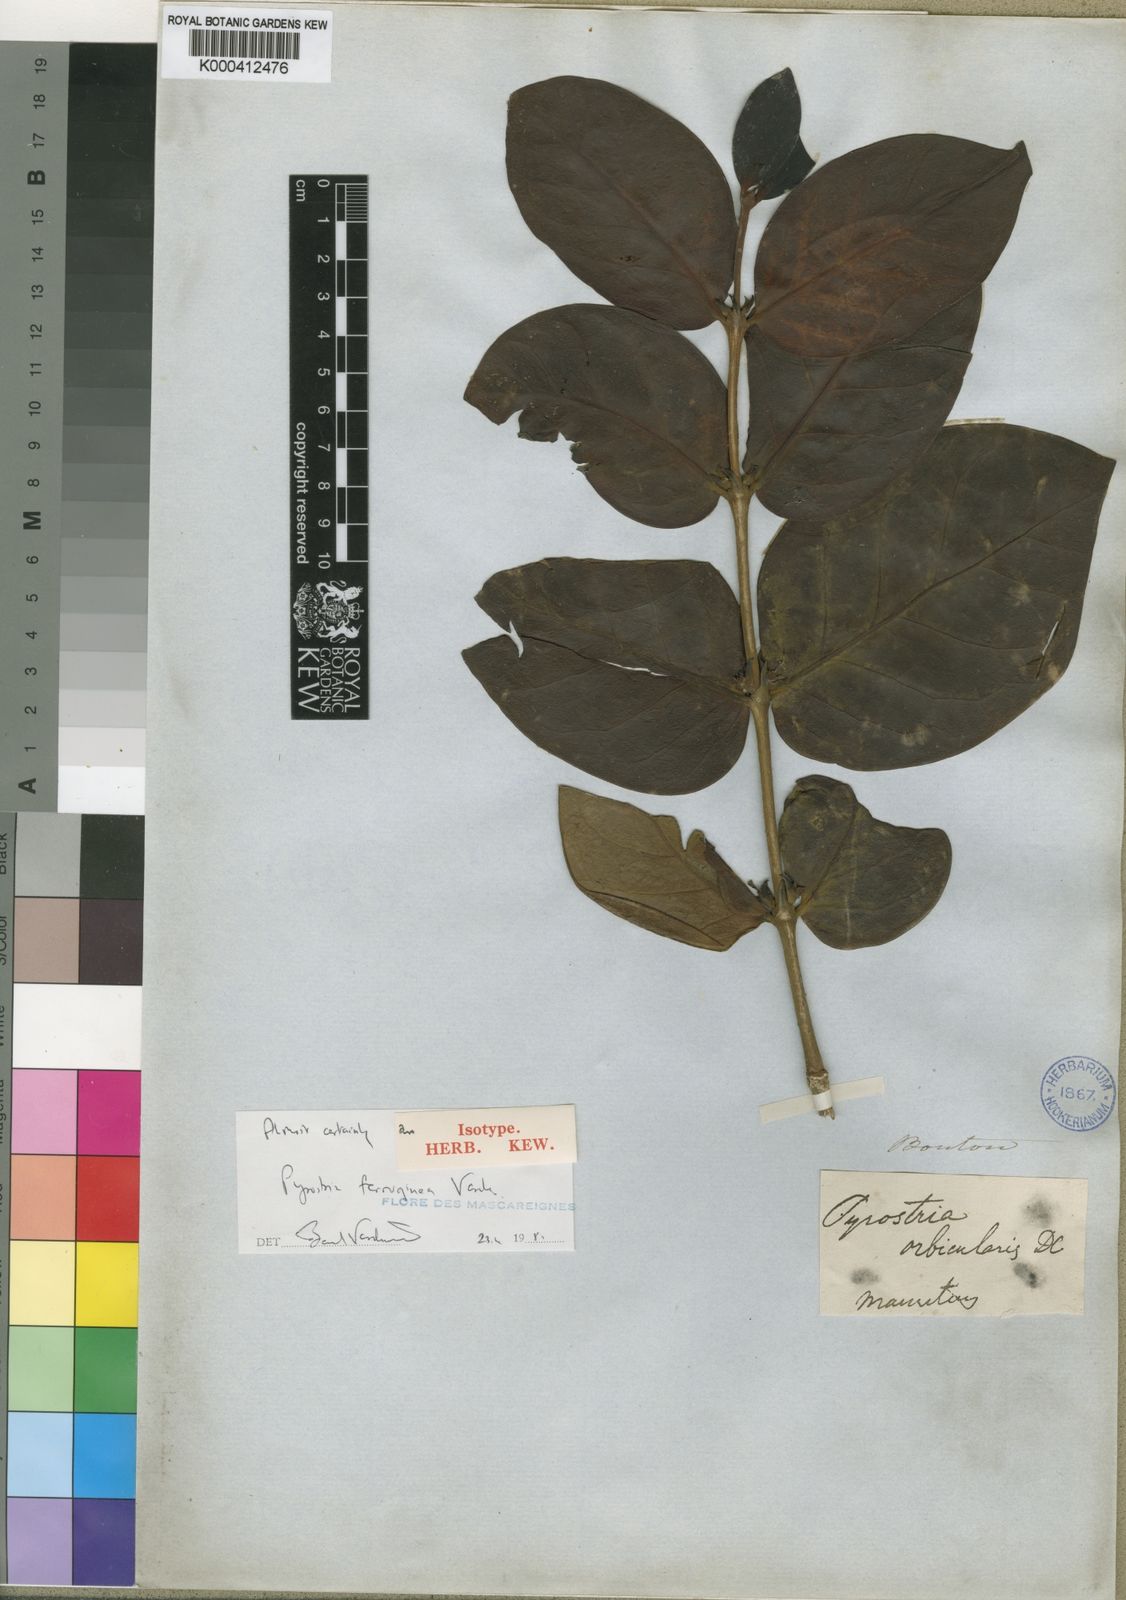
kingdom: Plantae
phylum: Tracheophyta
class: Magnoliopsida
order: Gentianales
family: Rubiaceae
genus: Pyrostria
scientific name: Pyrostria ferruginea
